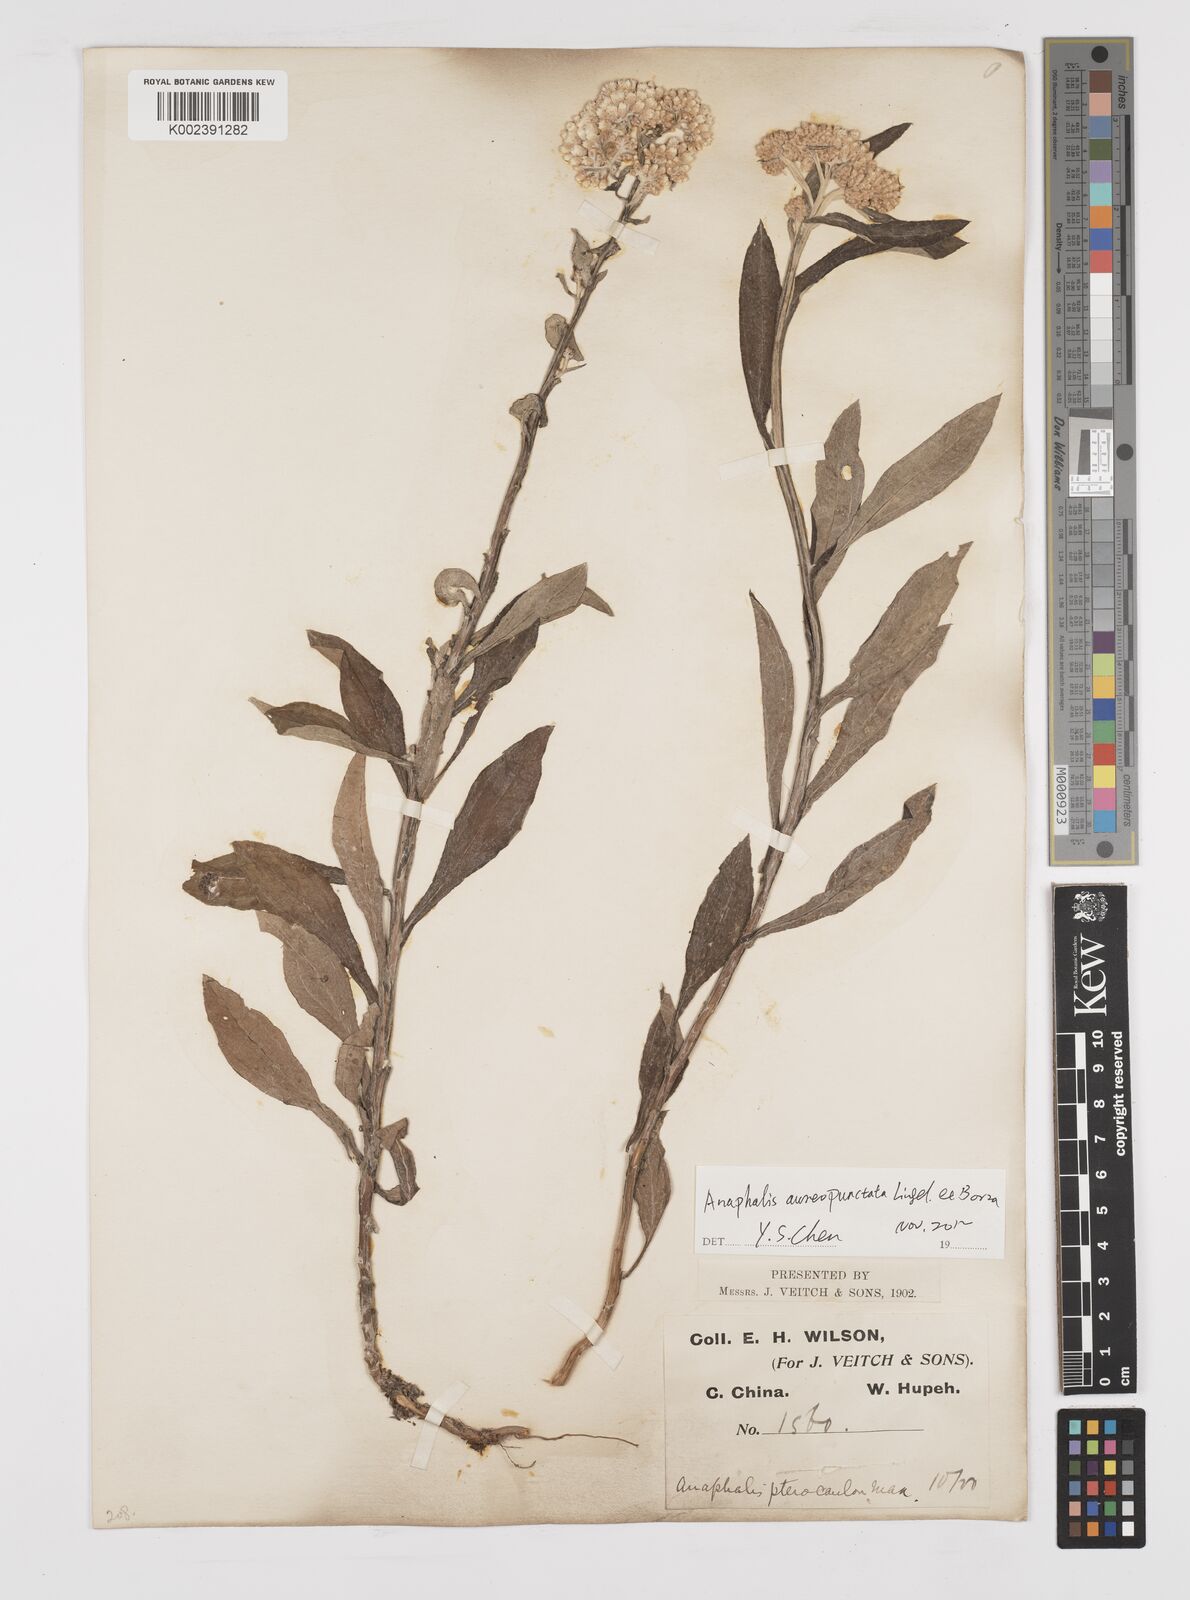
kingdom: Plantae
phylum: Tracheophyta
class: Magnoliopsida
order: Asterales
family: Asteraceae
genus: Anaphalis
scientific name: Anaphalis sinica
